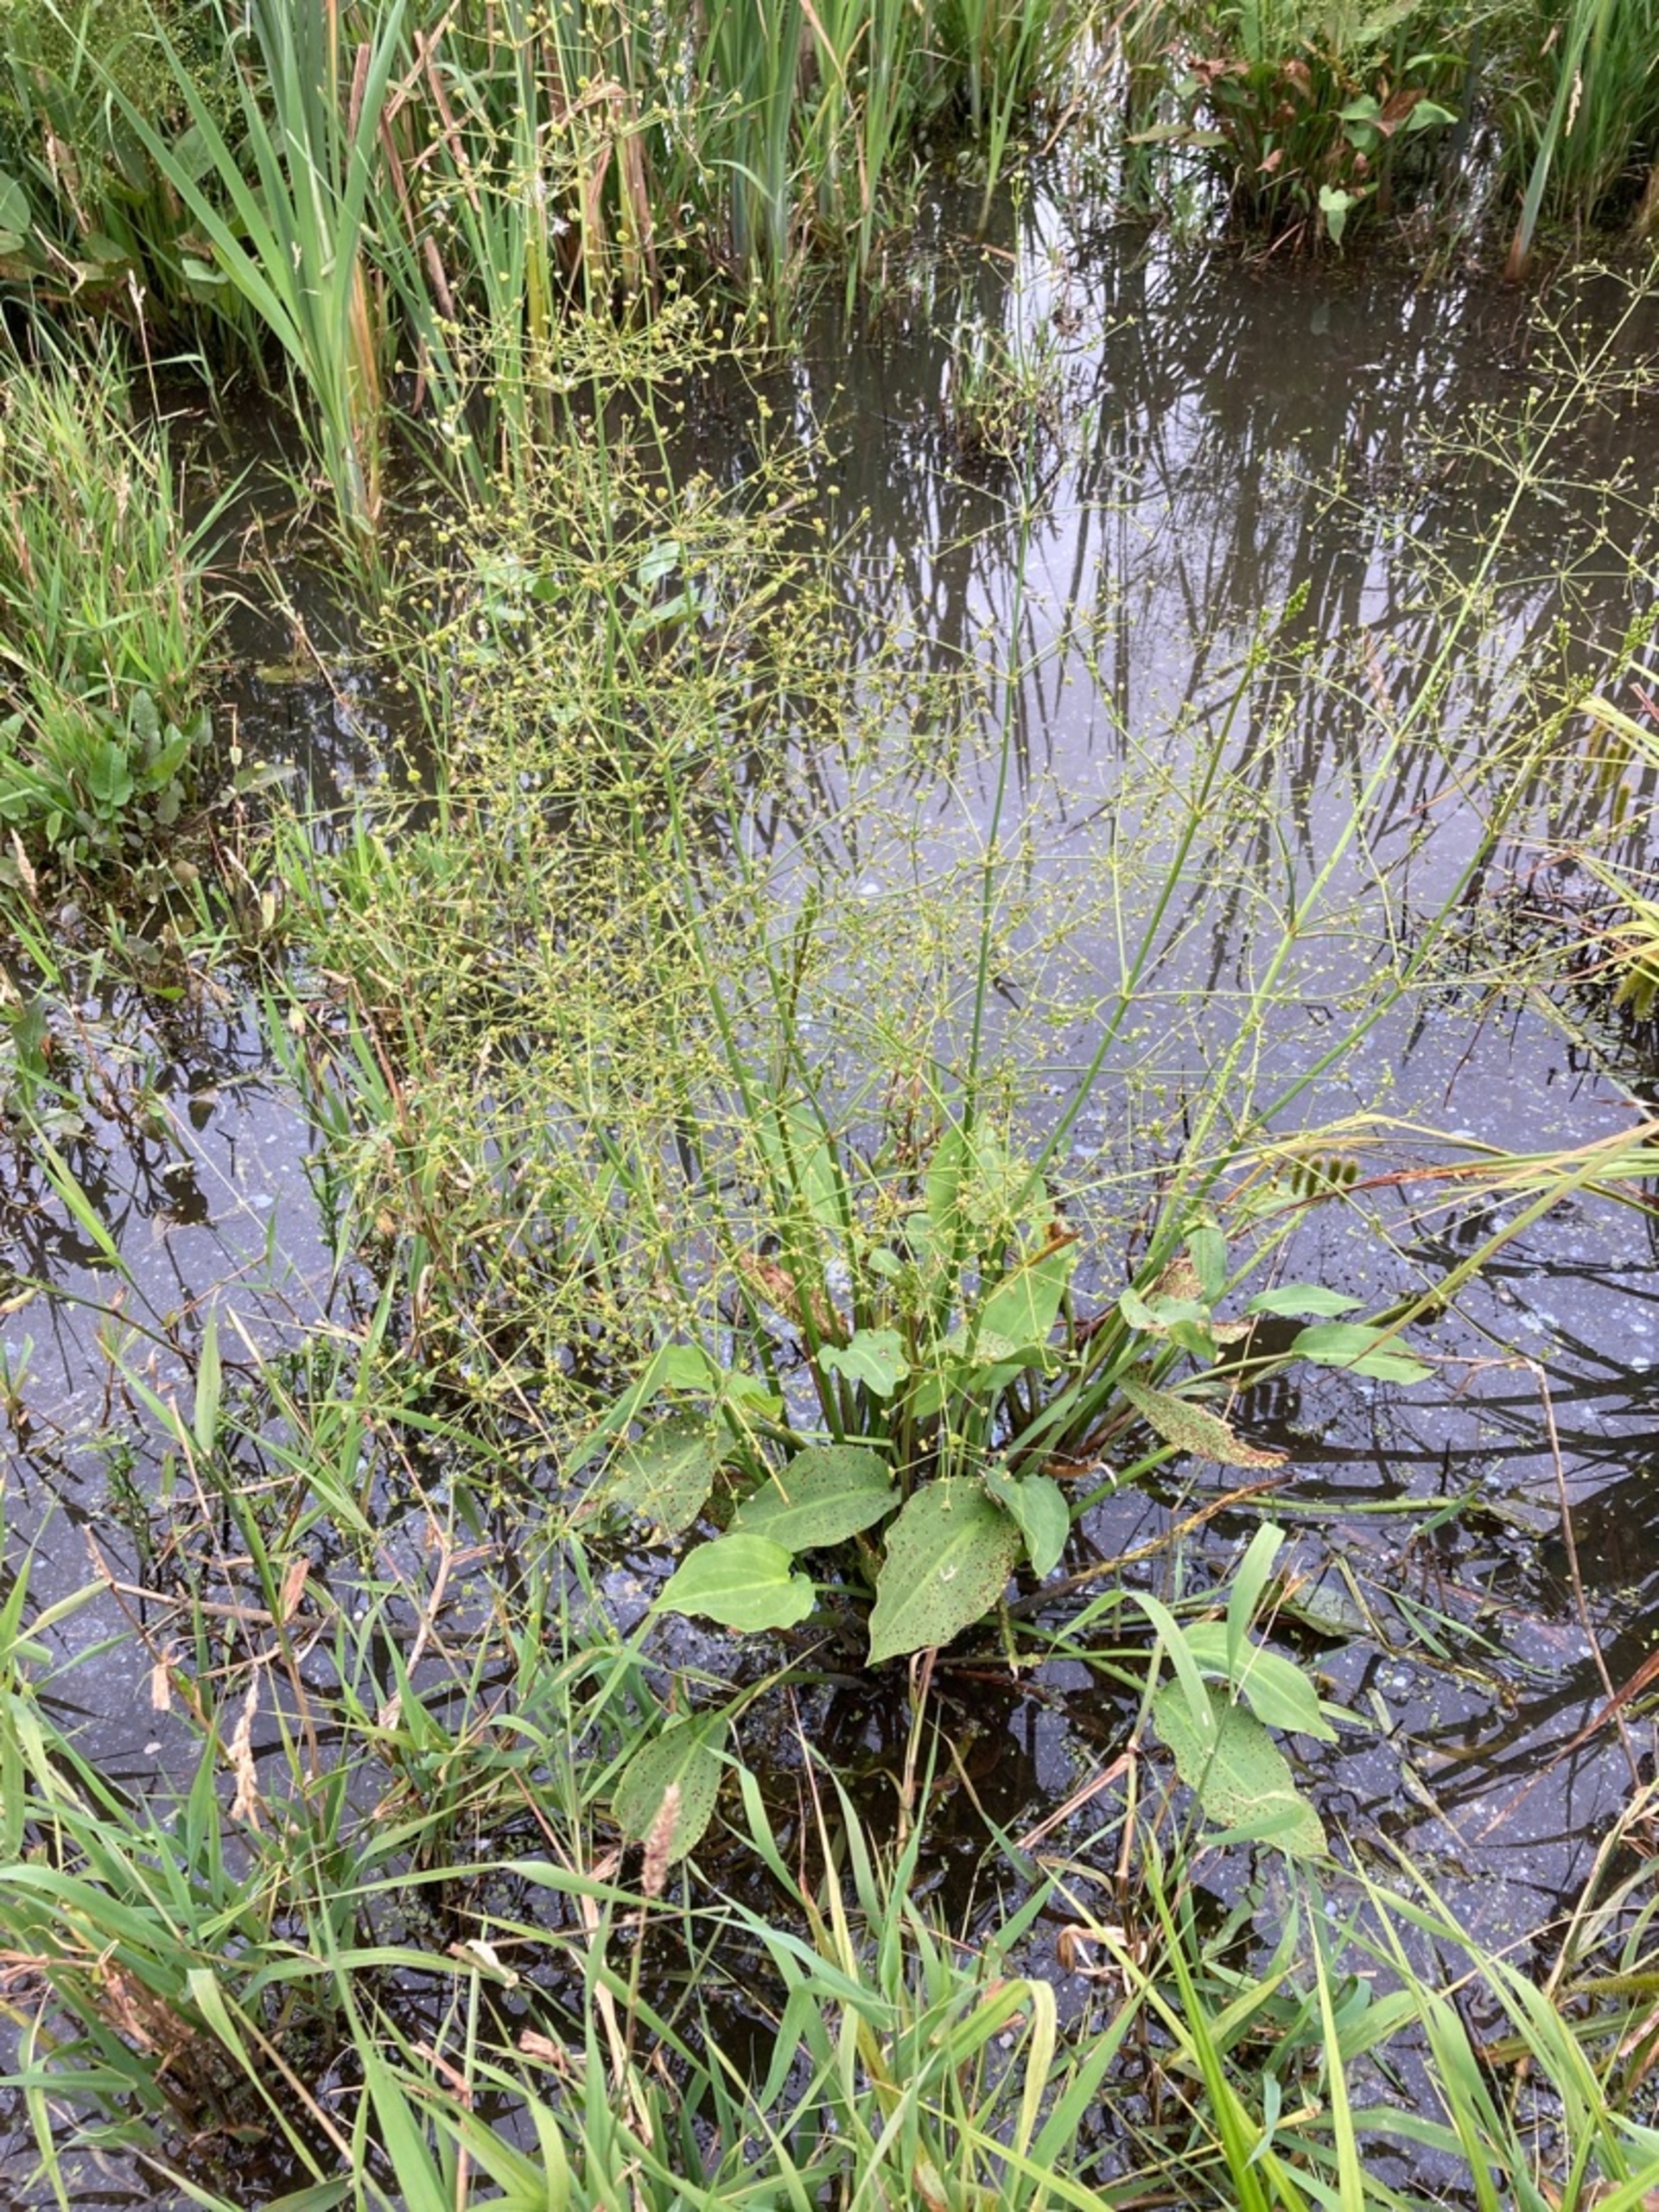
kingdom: Plantae
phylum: Tracheophyta
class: Liliopsida
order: Alismatales
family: Alismataceae
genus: Alisma
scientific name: Alisma plantago-aquatica
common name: Vejbred-skeblad
